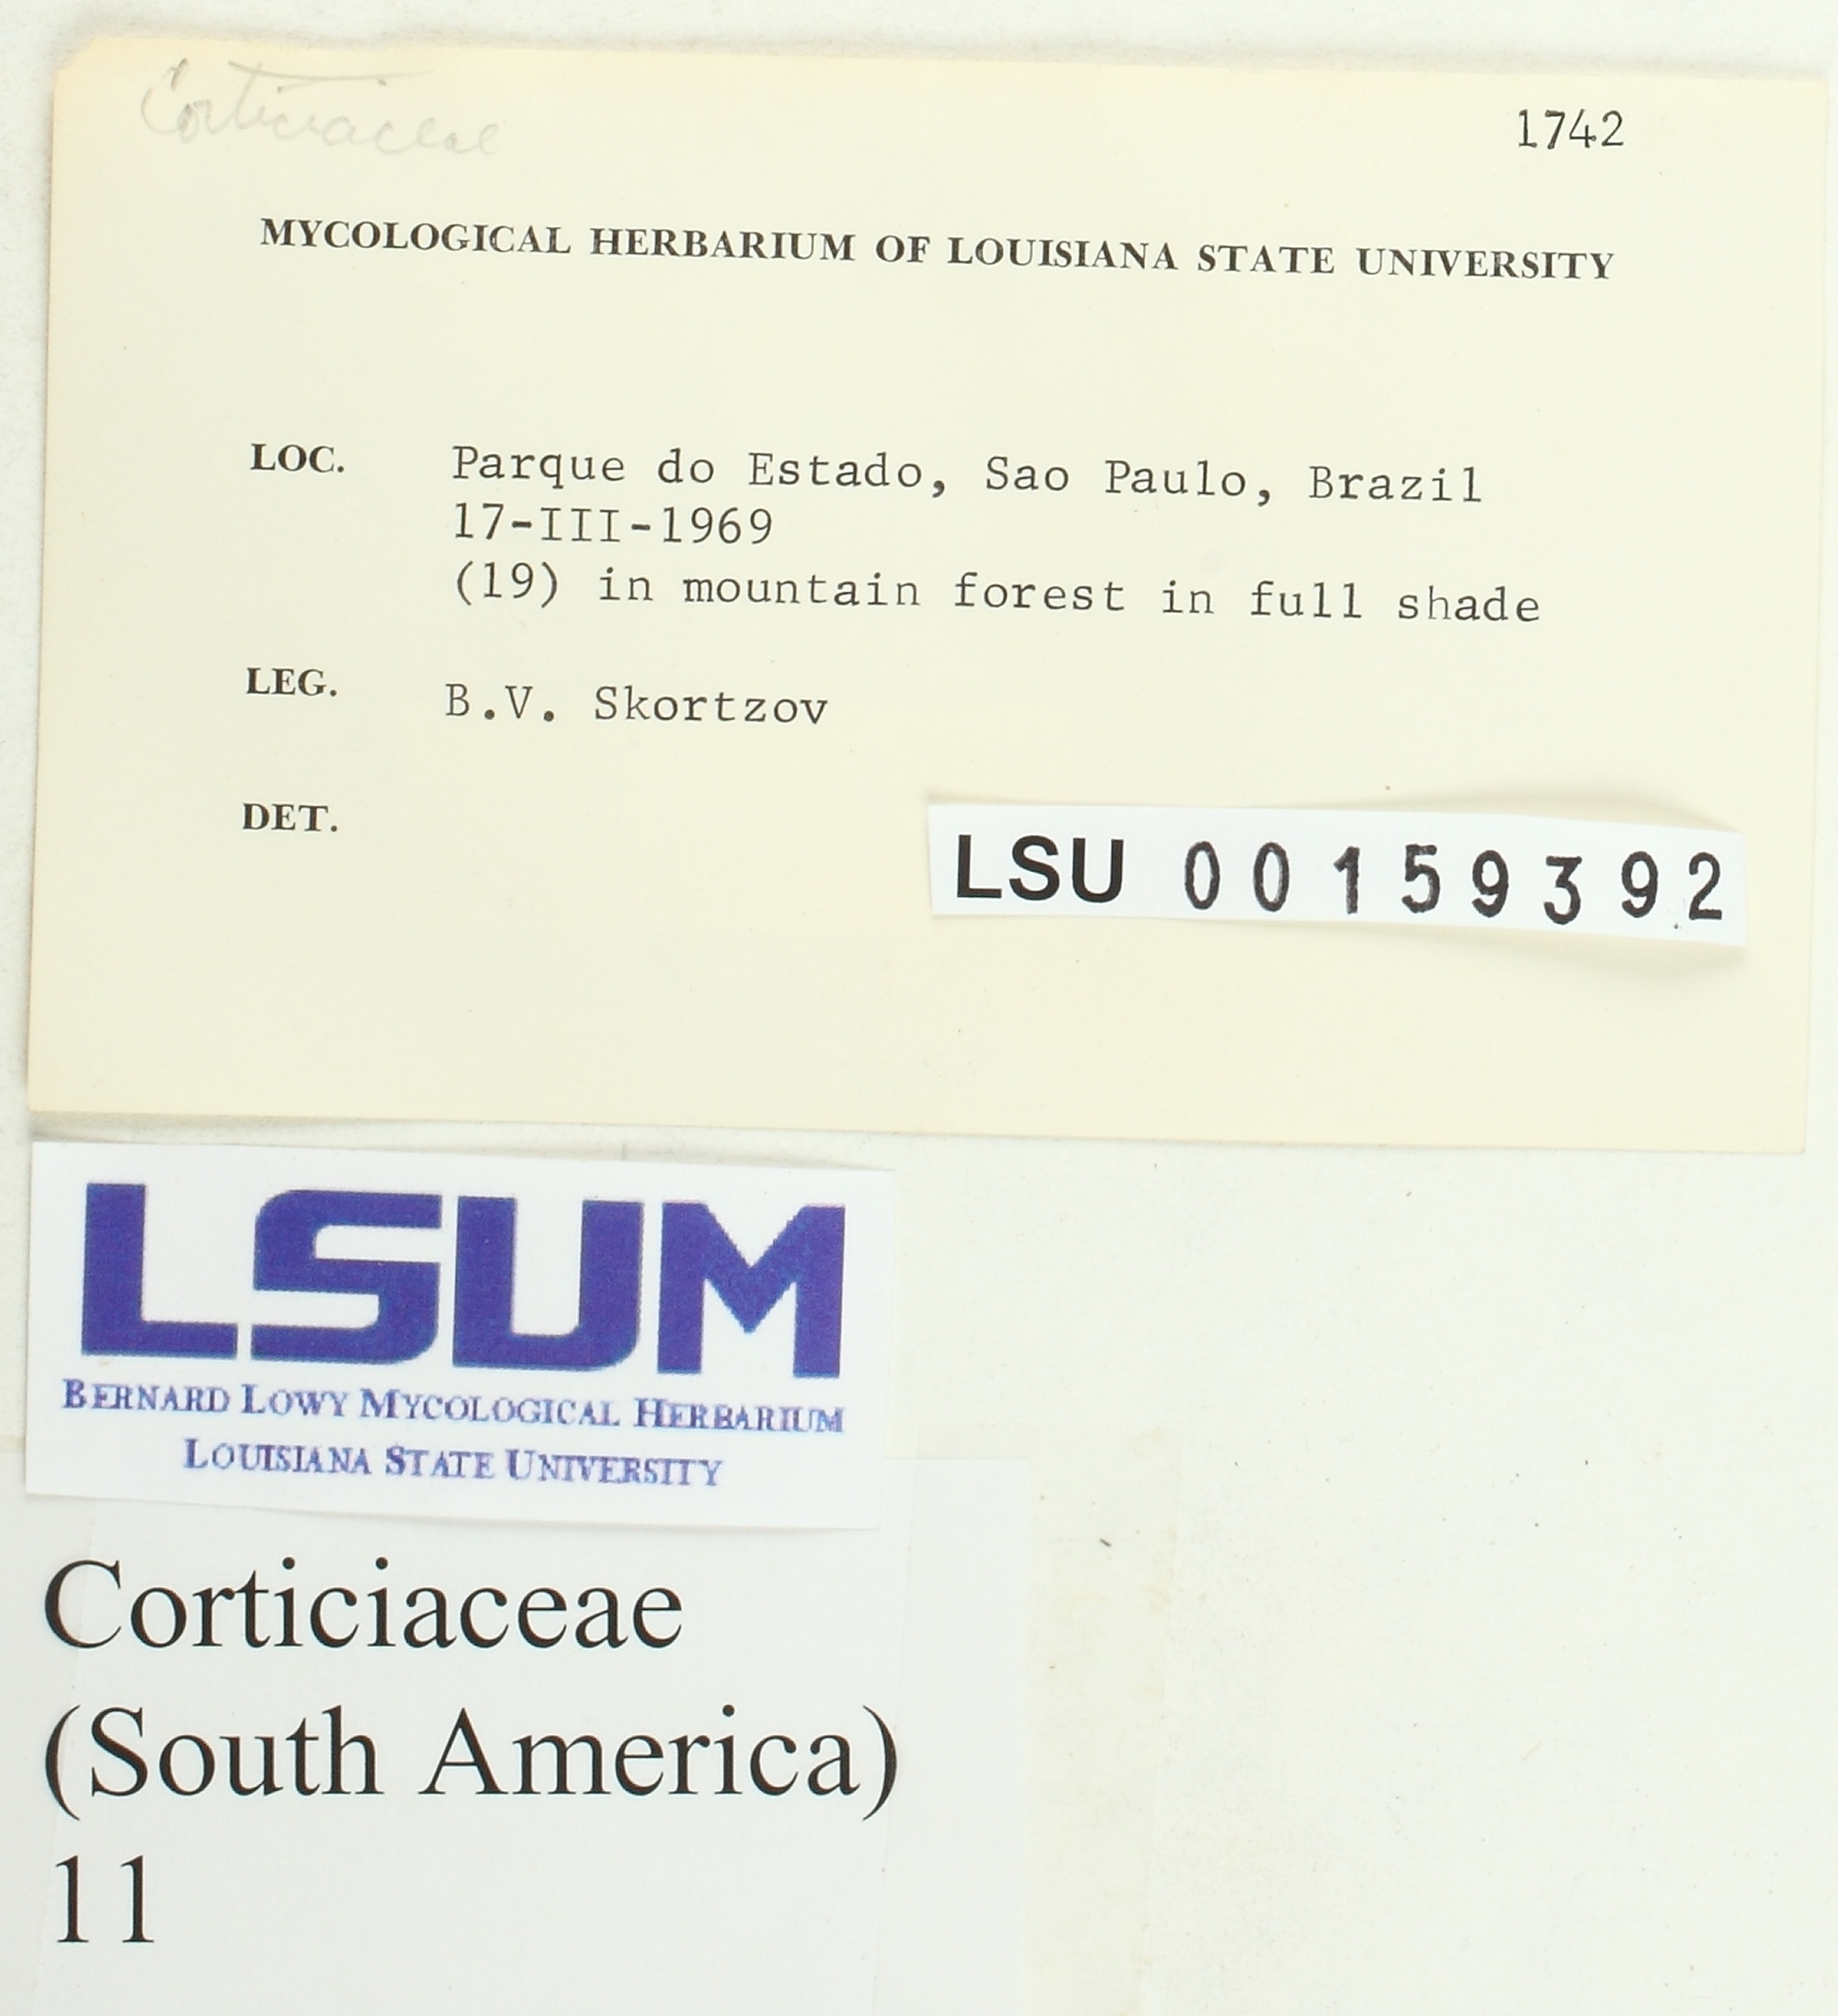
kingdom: Fungi
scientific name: Fungi
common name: Fungi
